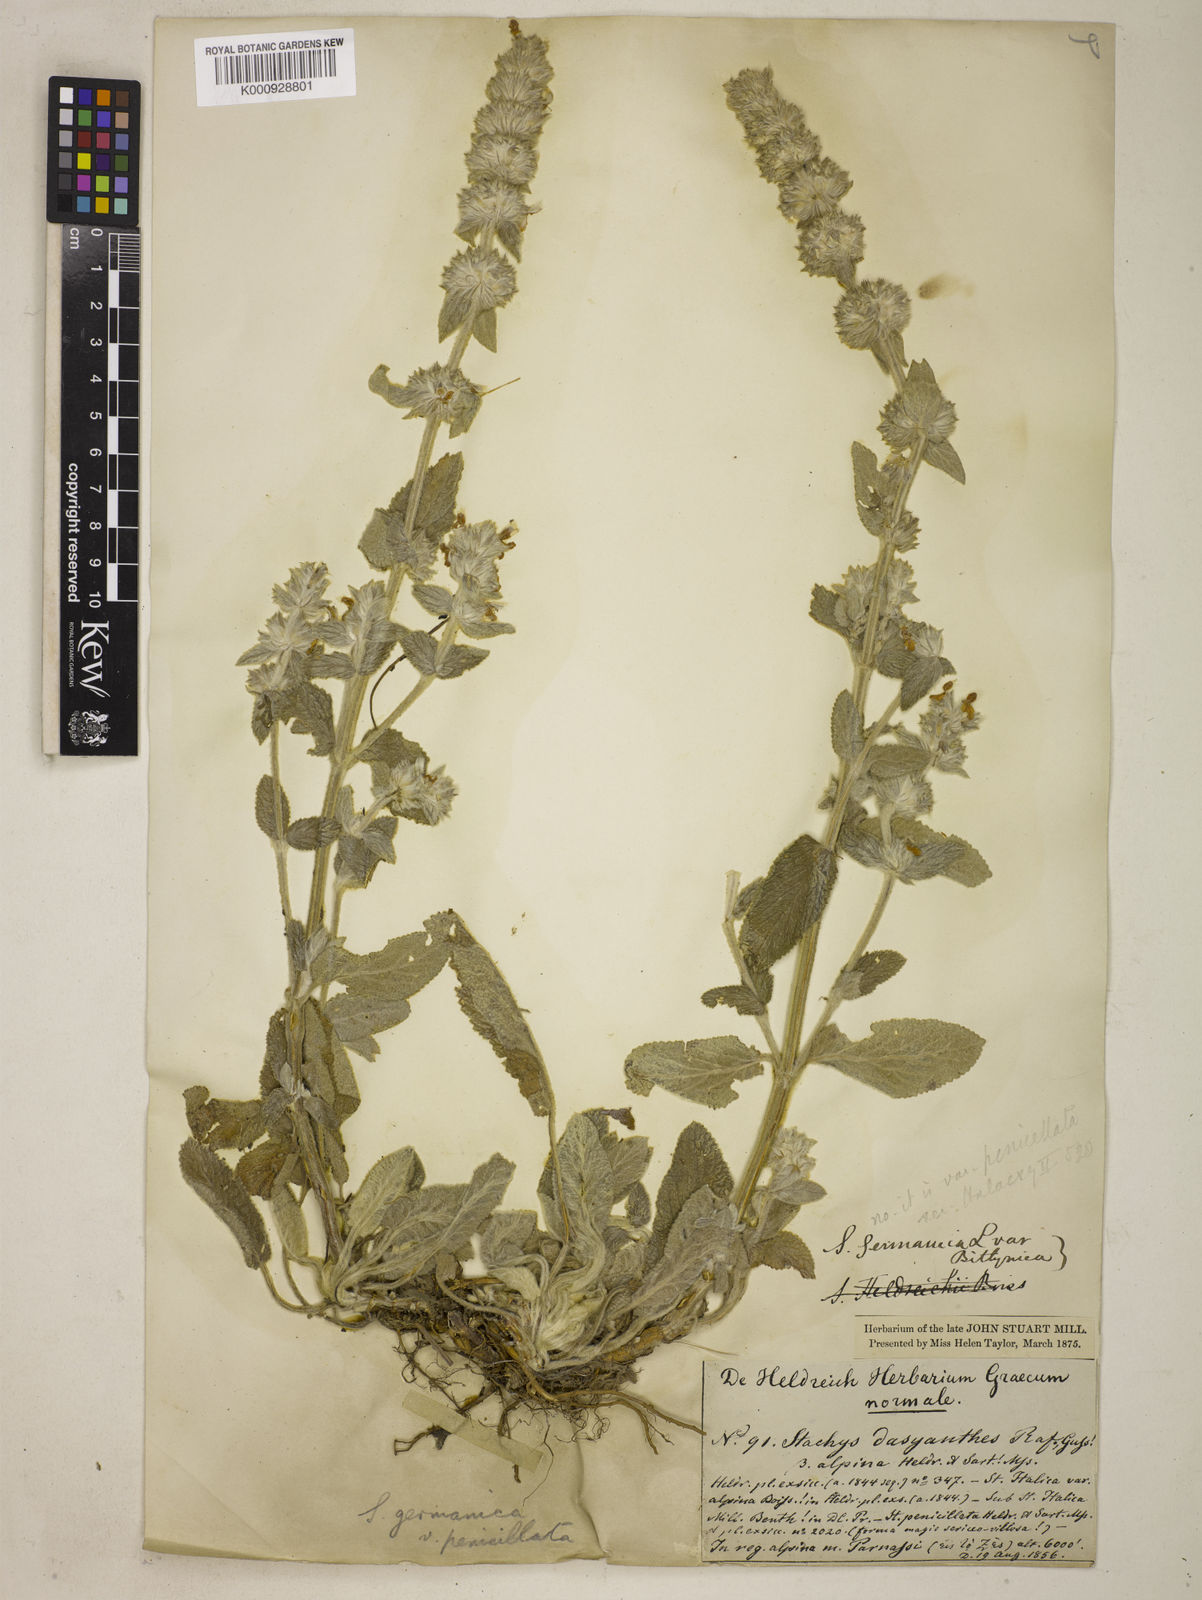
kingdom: Plantae
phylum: Tracheophyta
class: Magnoliopsida
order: Lamiales
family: Lamiaceae
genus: Stachys
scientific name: Stachys germanica
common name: Downy woundwort
